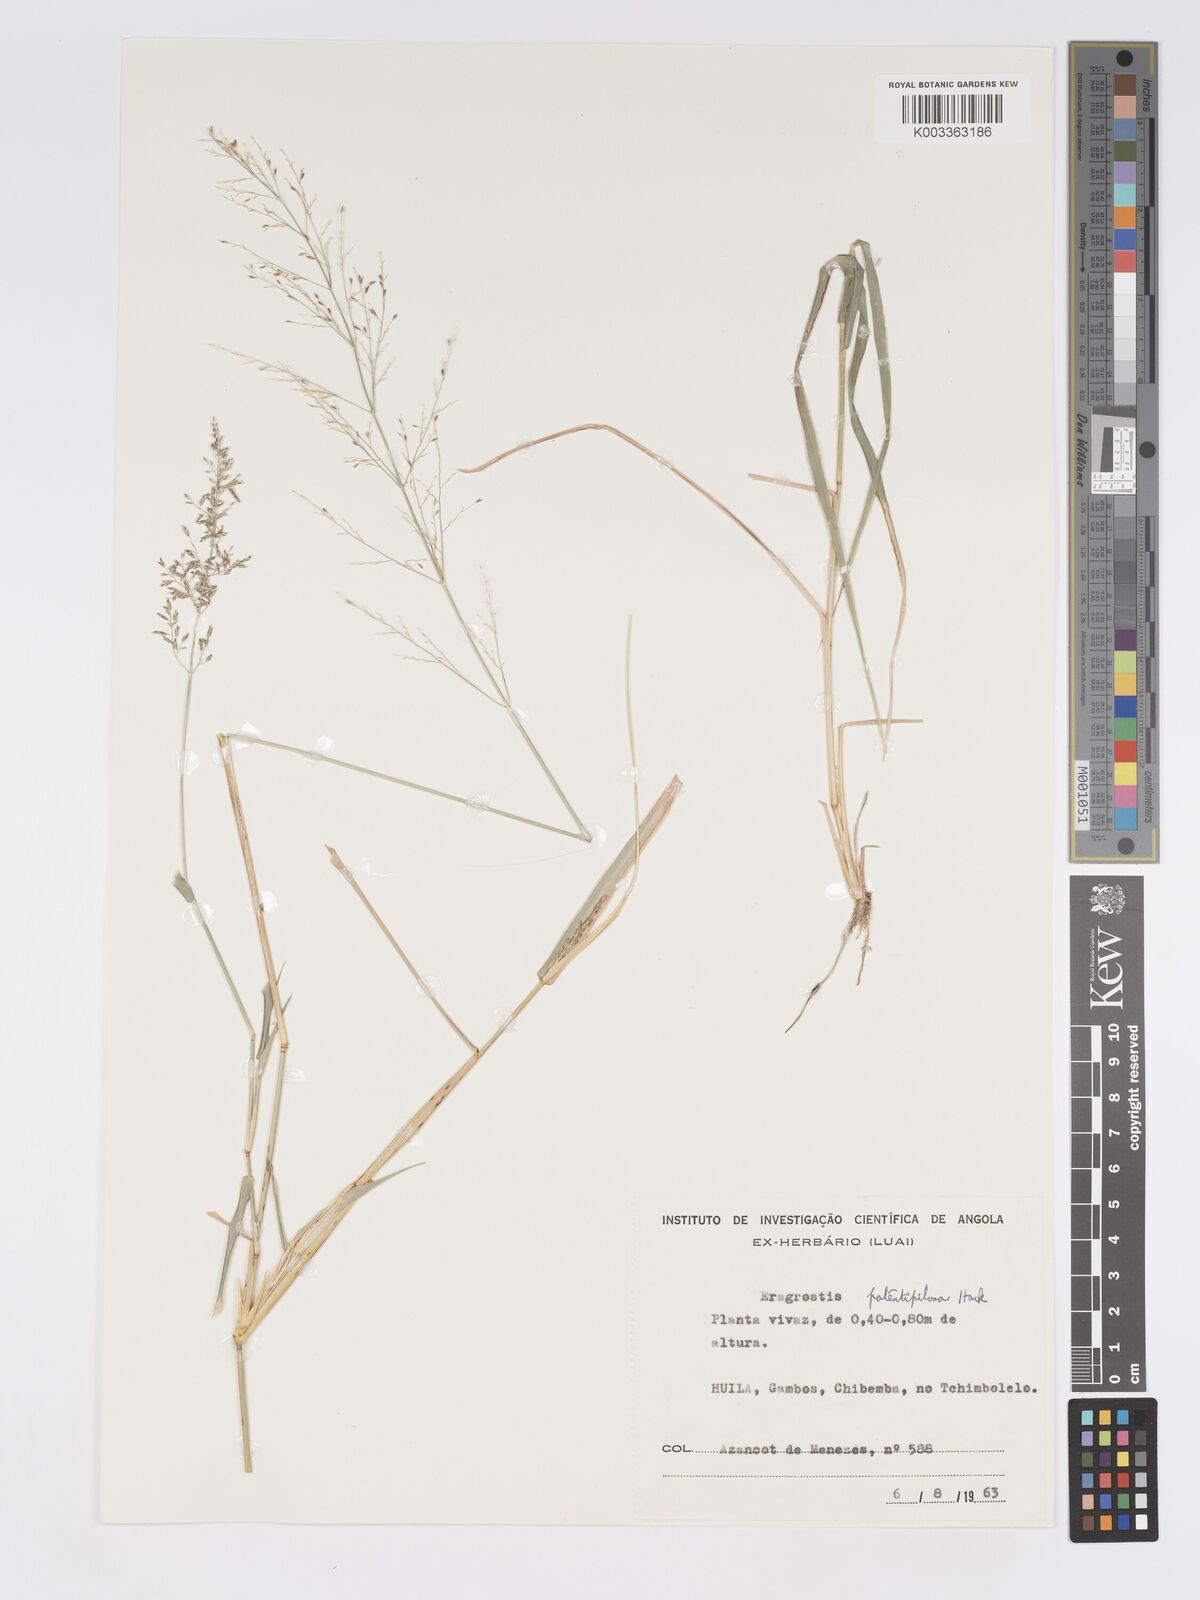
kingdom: Plantae
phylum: Tracheophyta
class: Liliopsida
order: Poales
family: Poaceae
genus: Eragrostis
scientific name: Eragrostis cylindriflora
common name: Cylinderflower lovegrass
